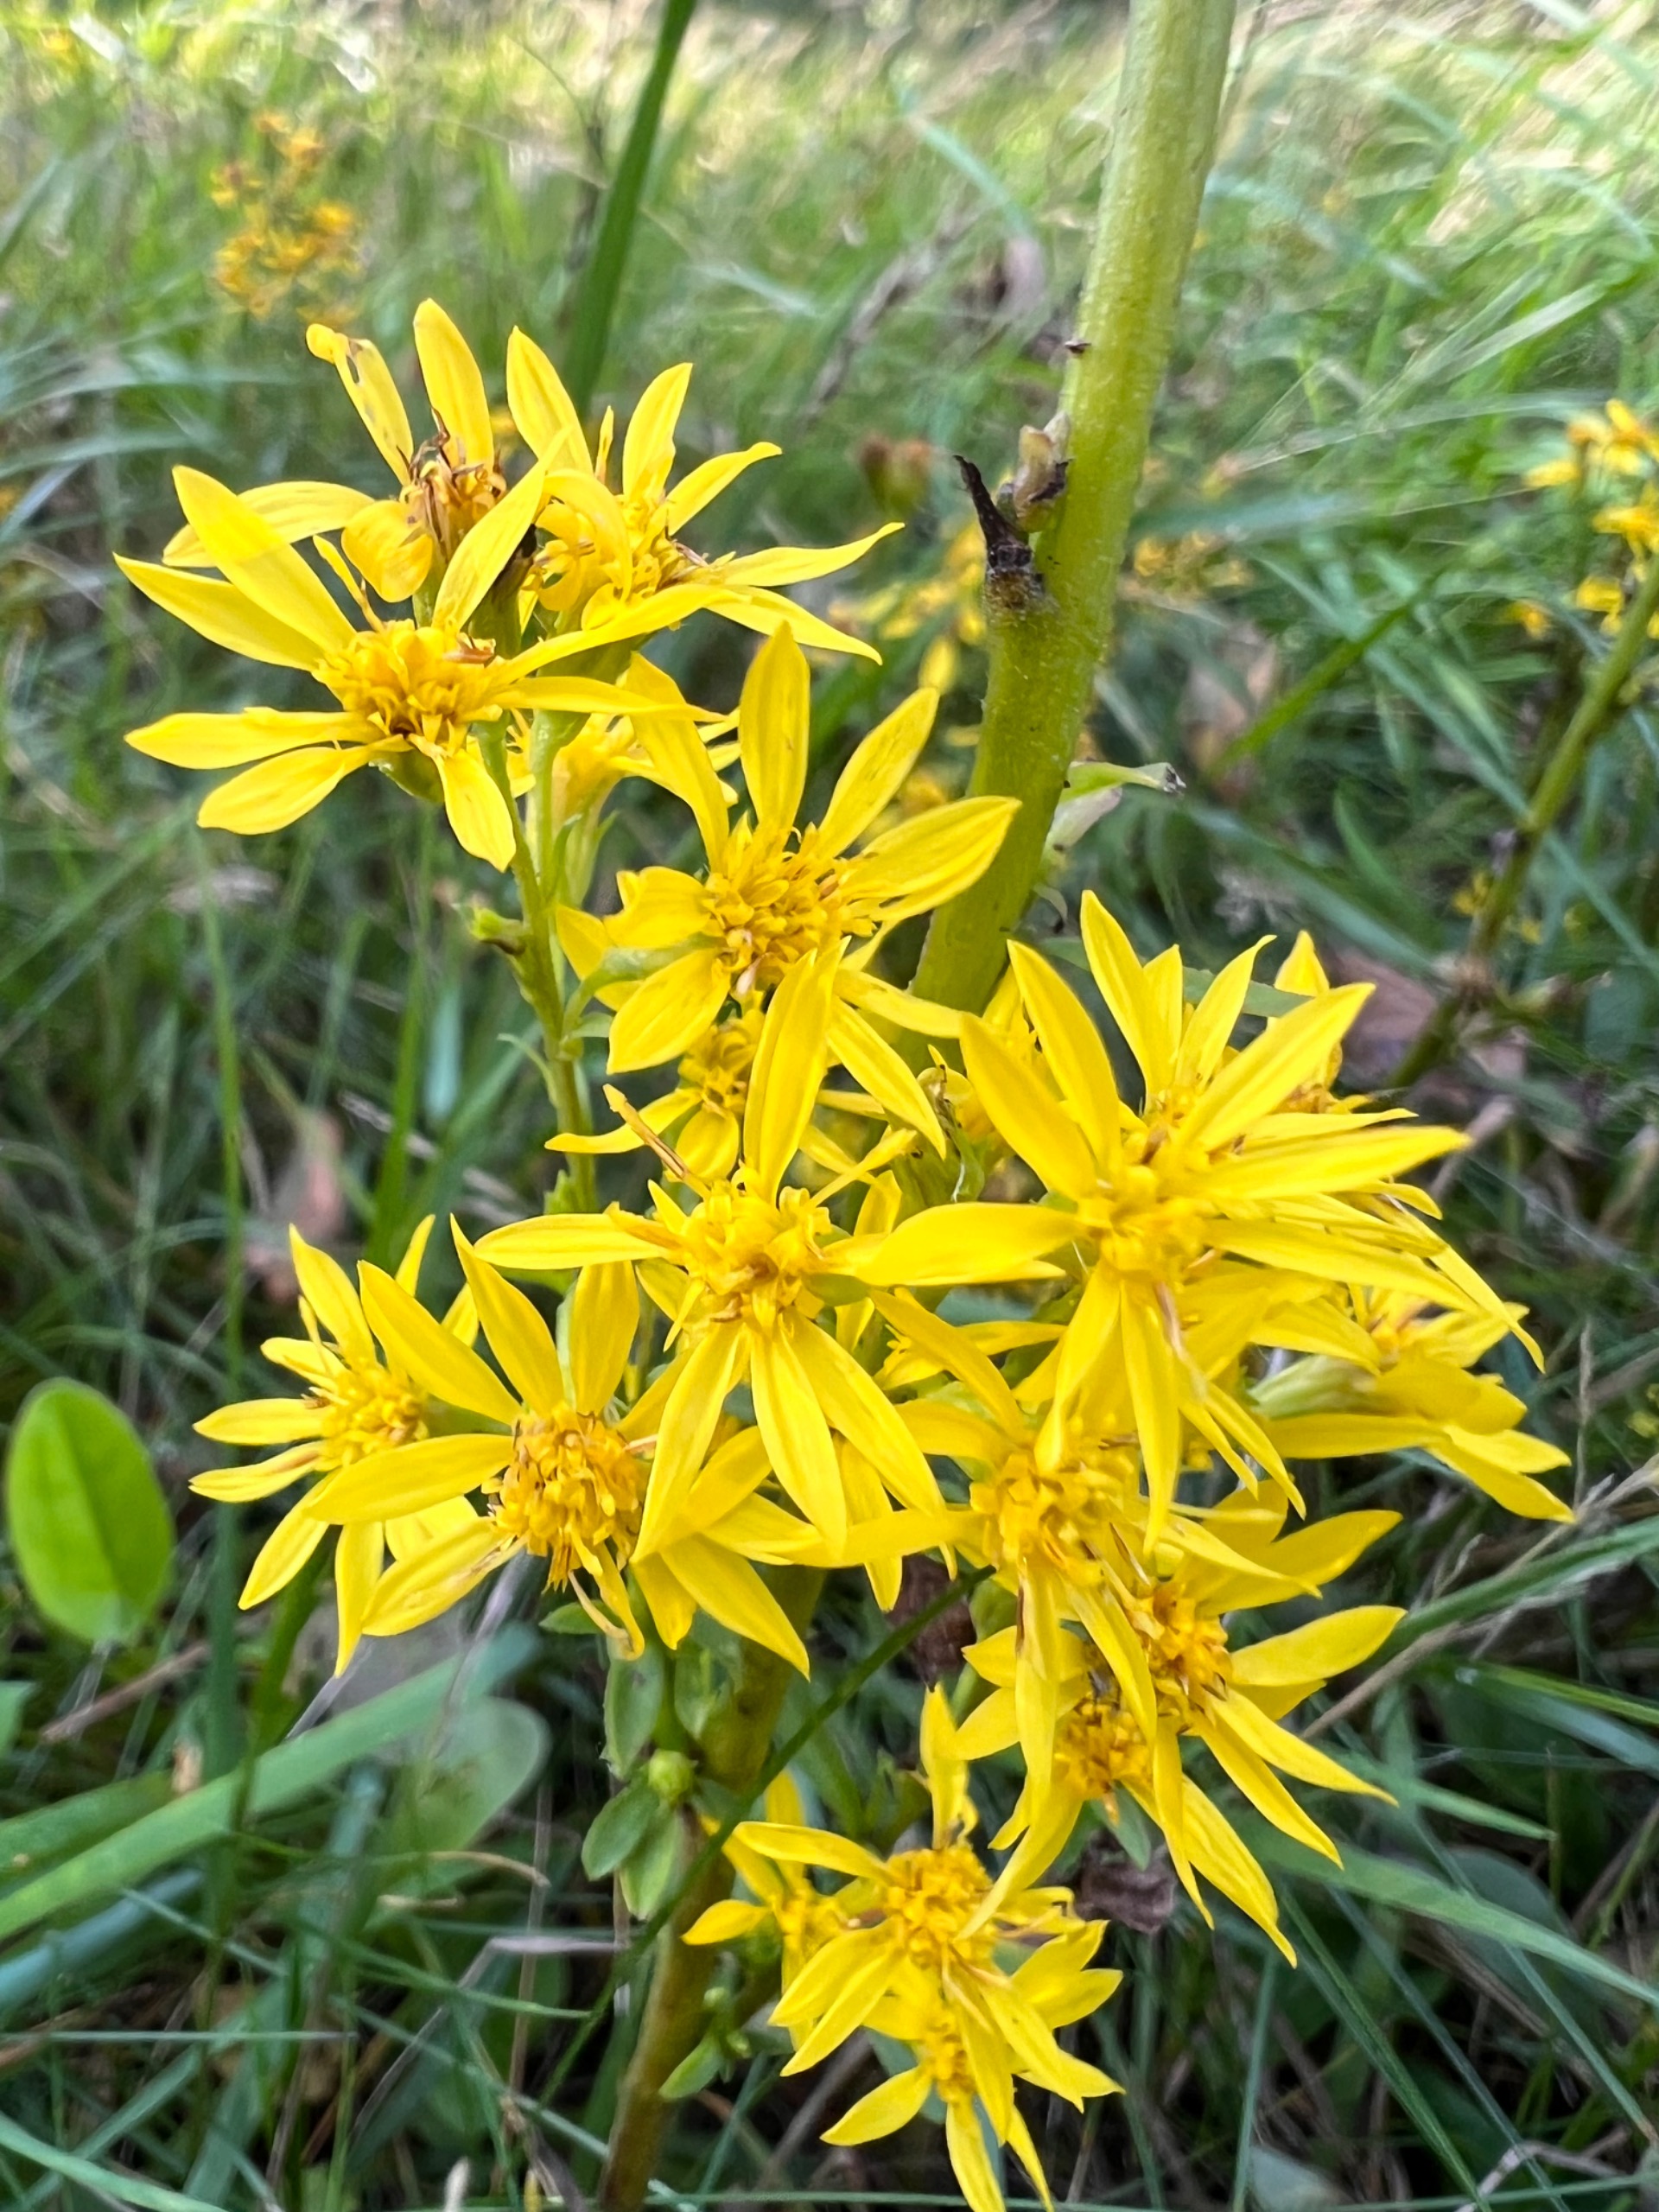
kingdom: Plantae
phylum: Tracheophyta
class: Magnoliopsida
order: Asterales
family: Asteraceae
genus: Solidago
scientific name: Solidago virgaurea
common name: Almindelig gyldenris
